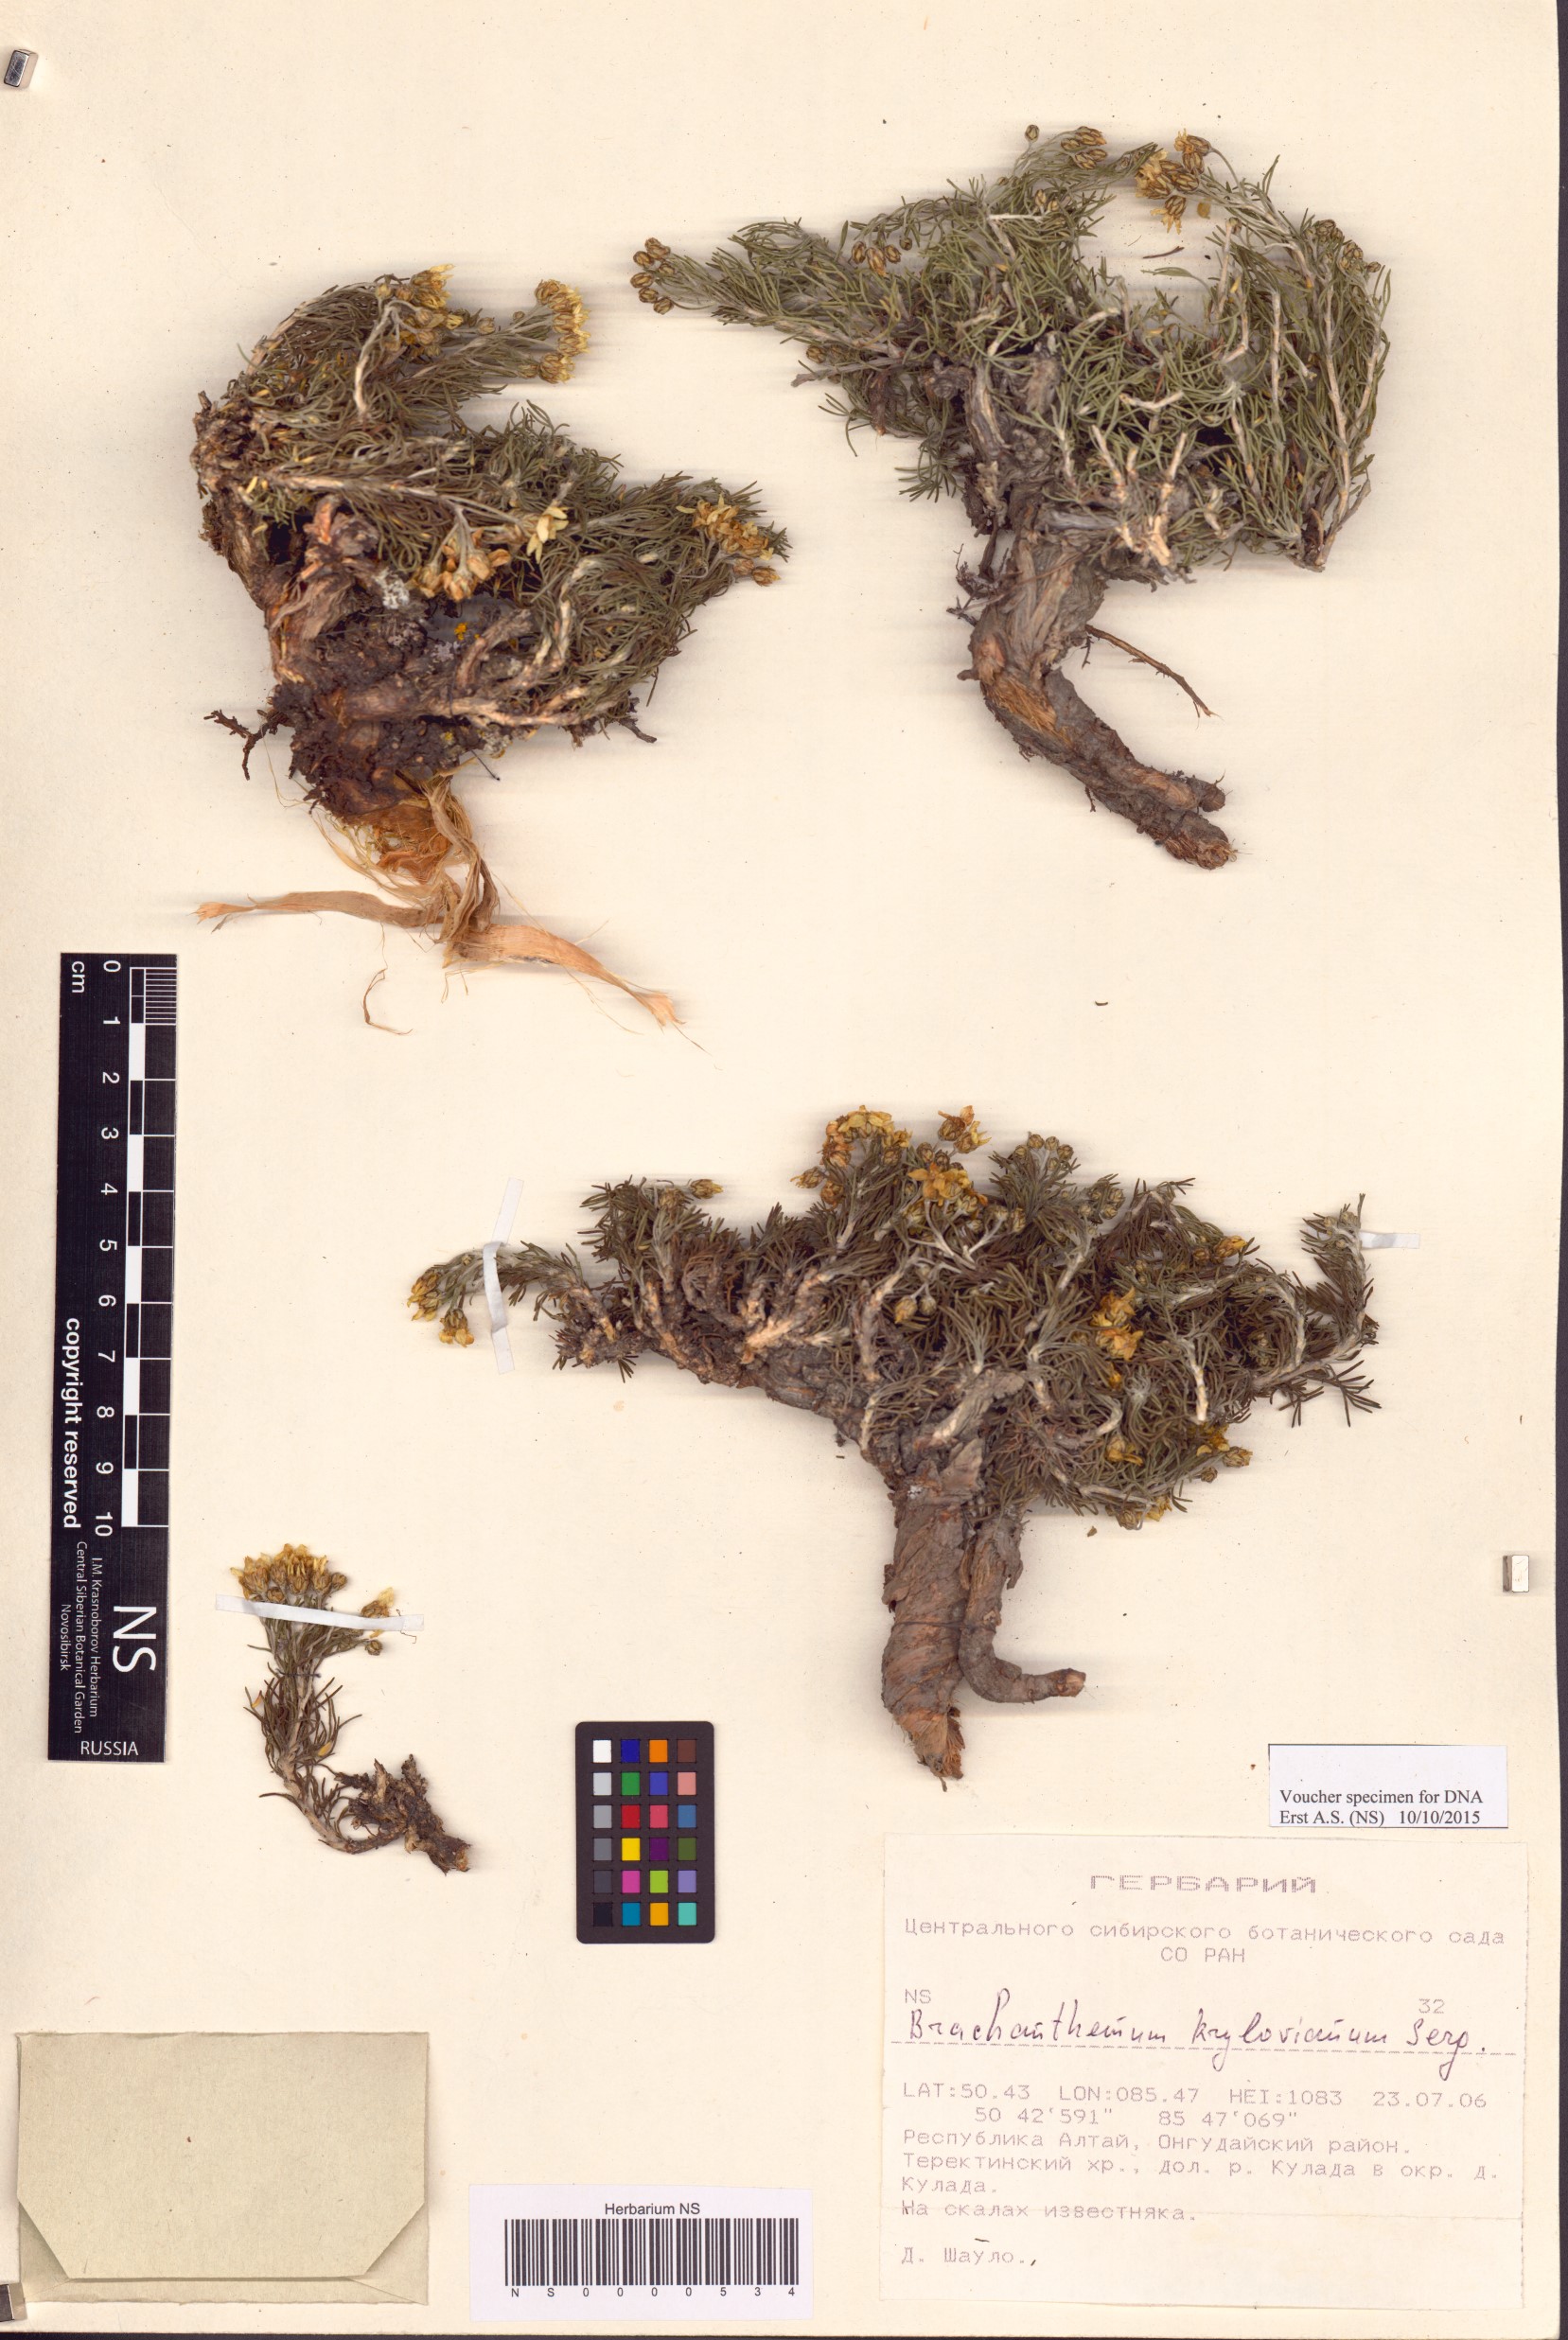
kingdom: Plantae
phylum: Tracheophyta
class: Magnoliopsida
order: Asterales
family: Asteraceae
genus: Brachanthemum
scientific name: Brachanthemum krylovii
